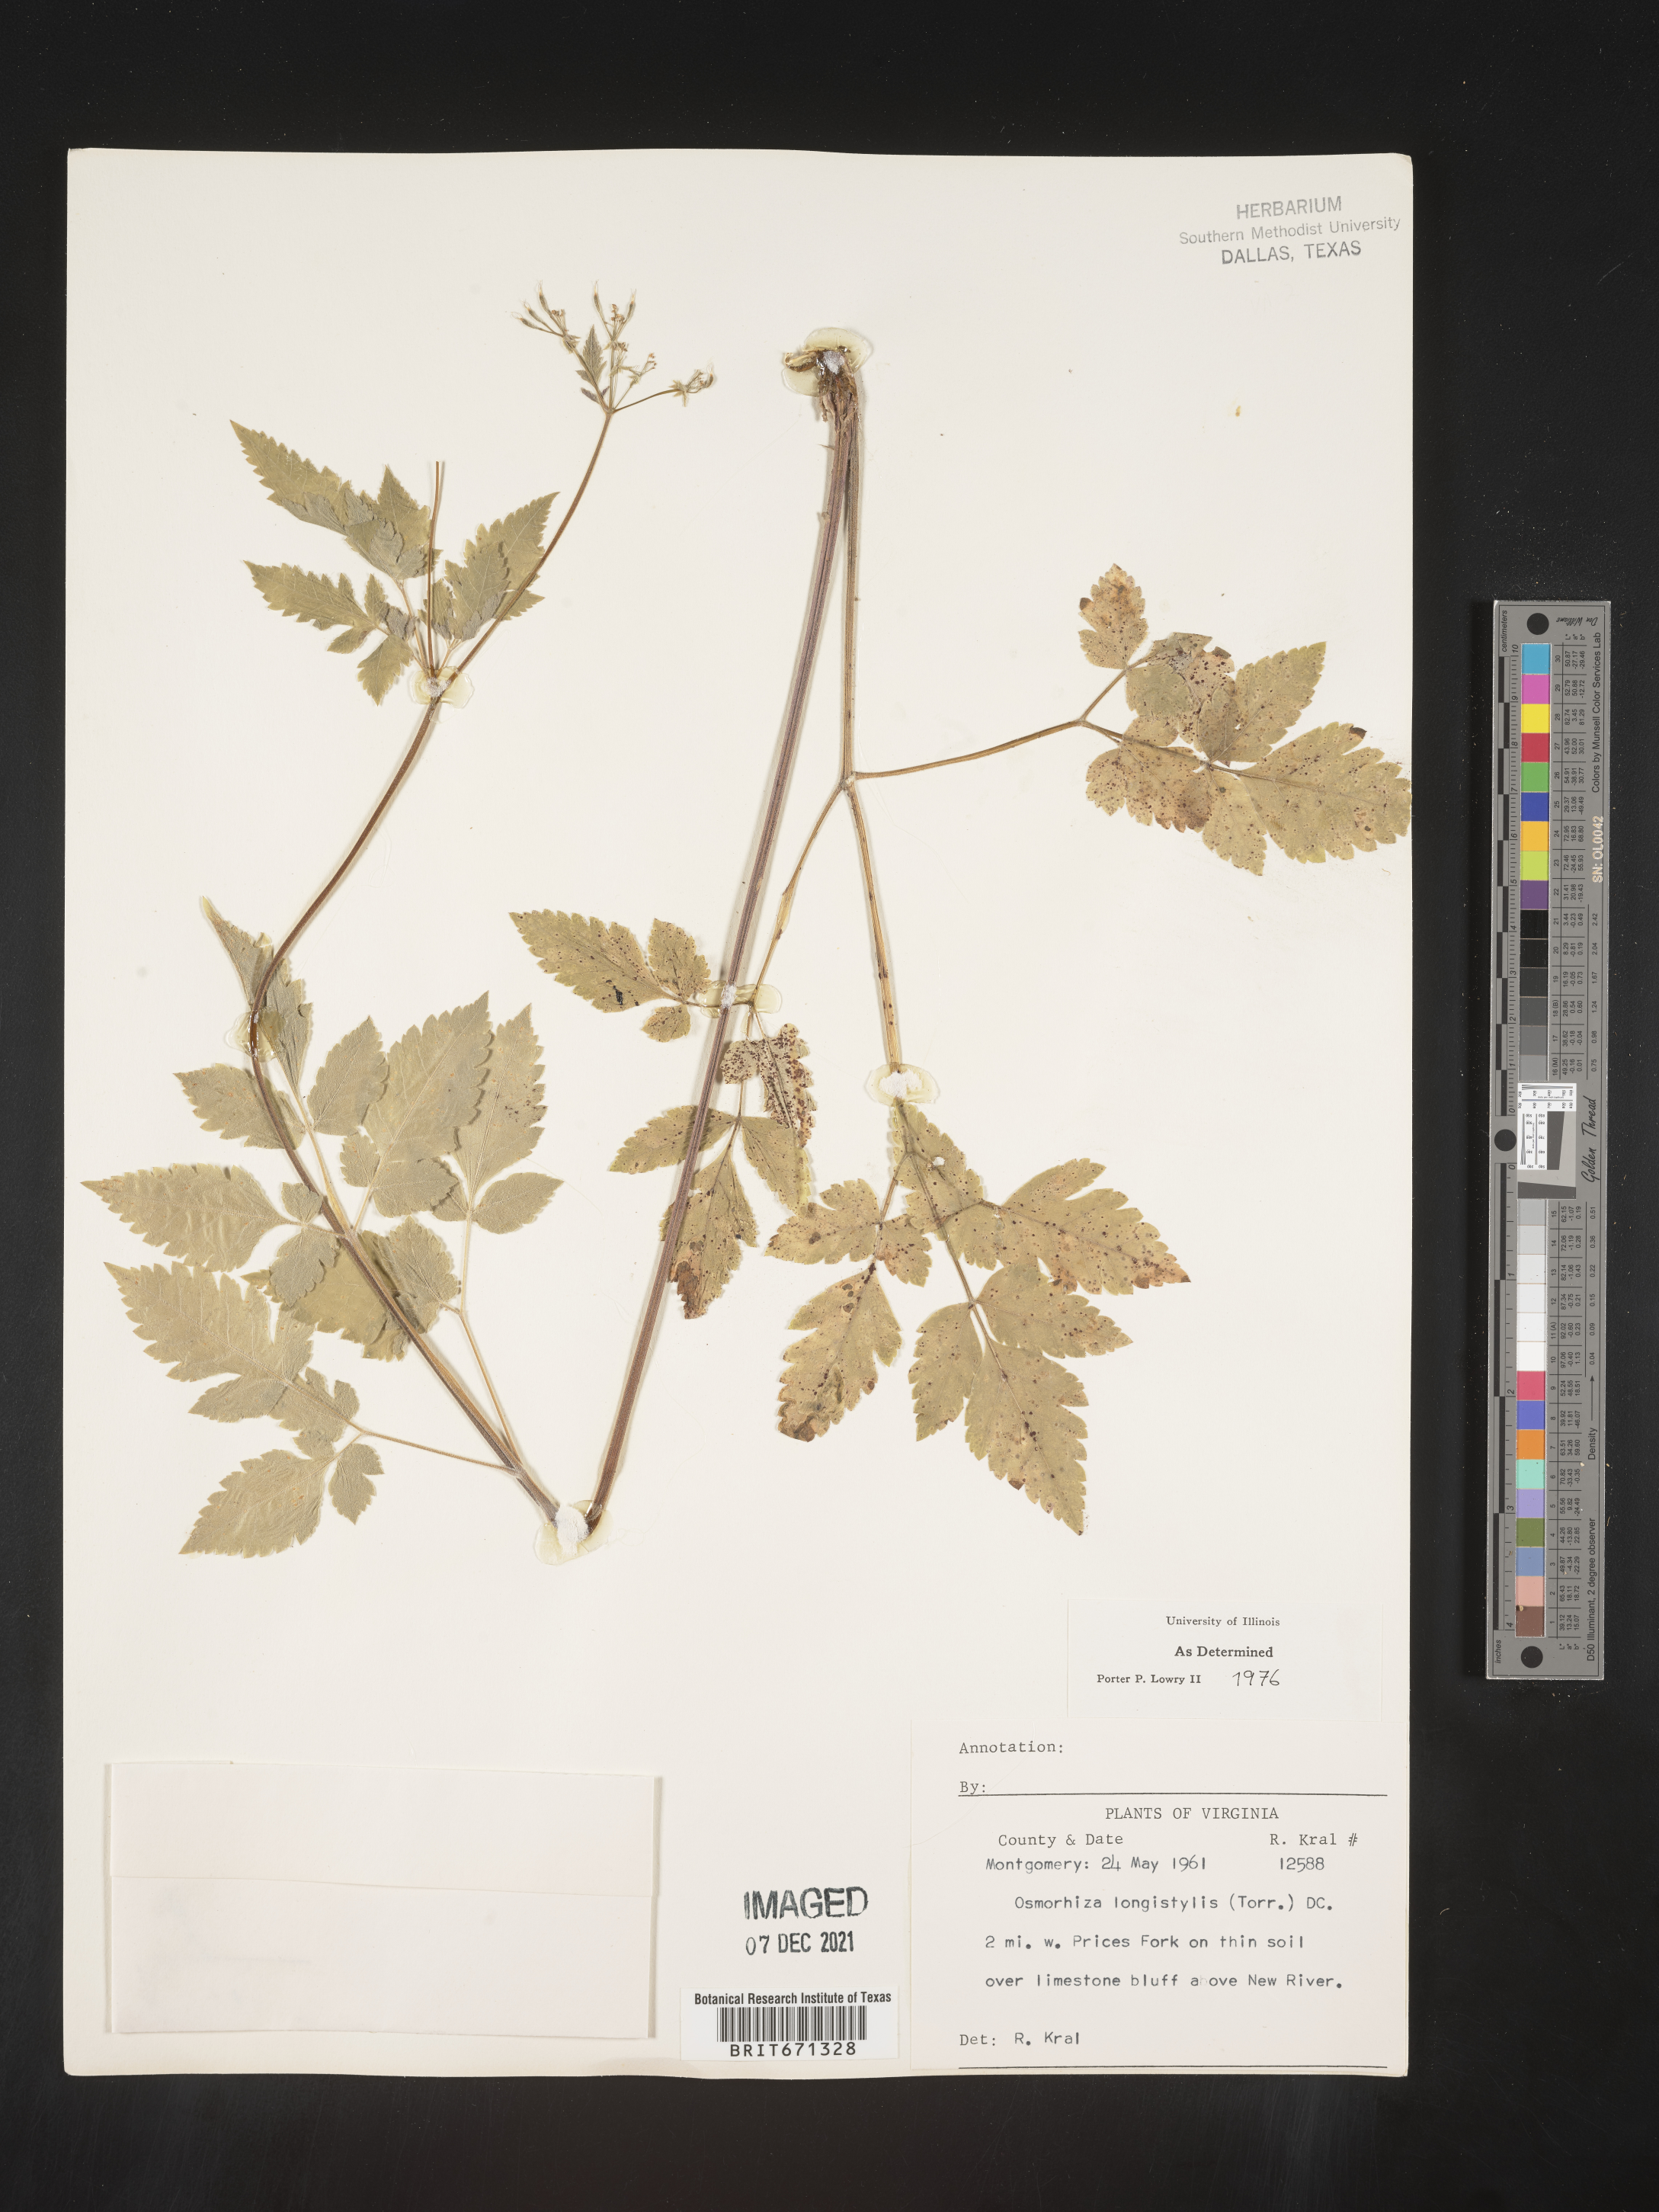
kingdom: Plantae
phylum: Tracheophyta
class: Magnoliopsida
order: Apiales
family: Apiaceae
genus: Osmorhiza
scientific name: Osmorhiza longistylis
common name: Smooth sweet cicely
